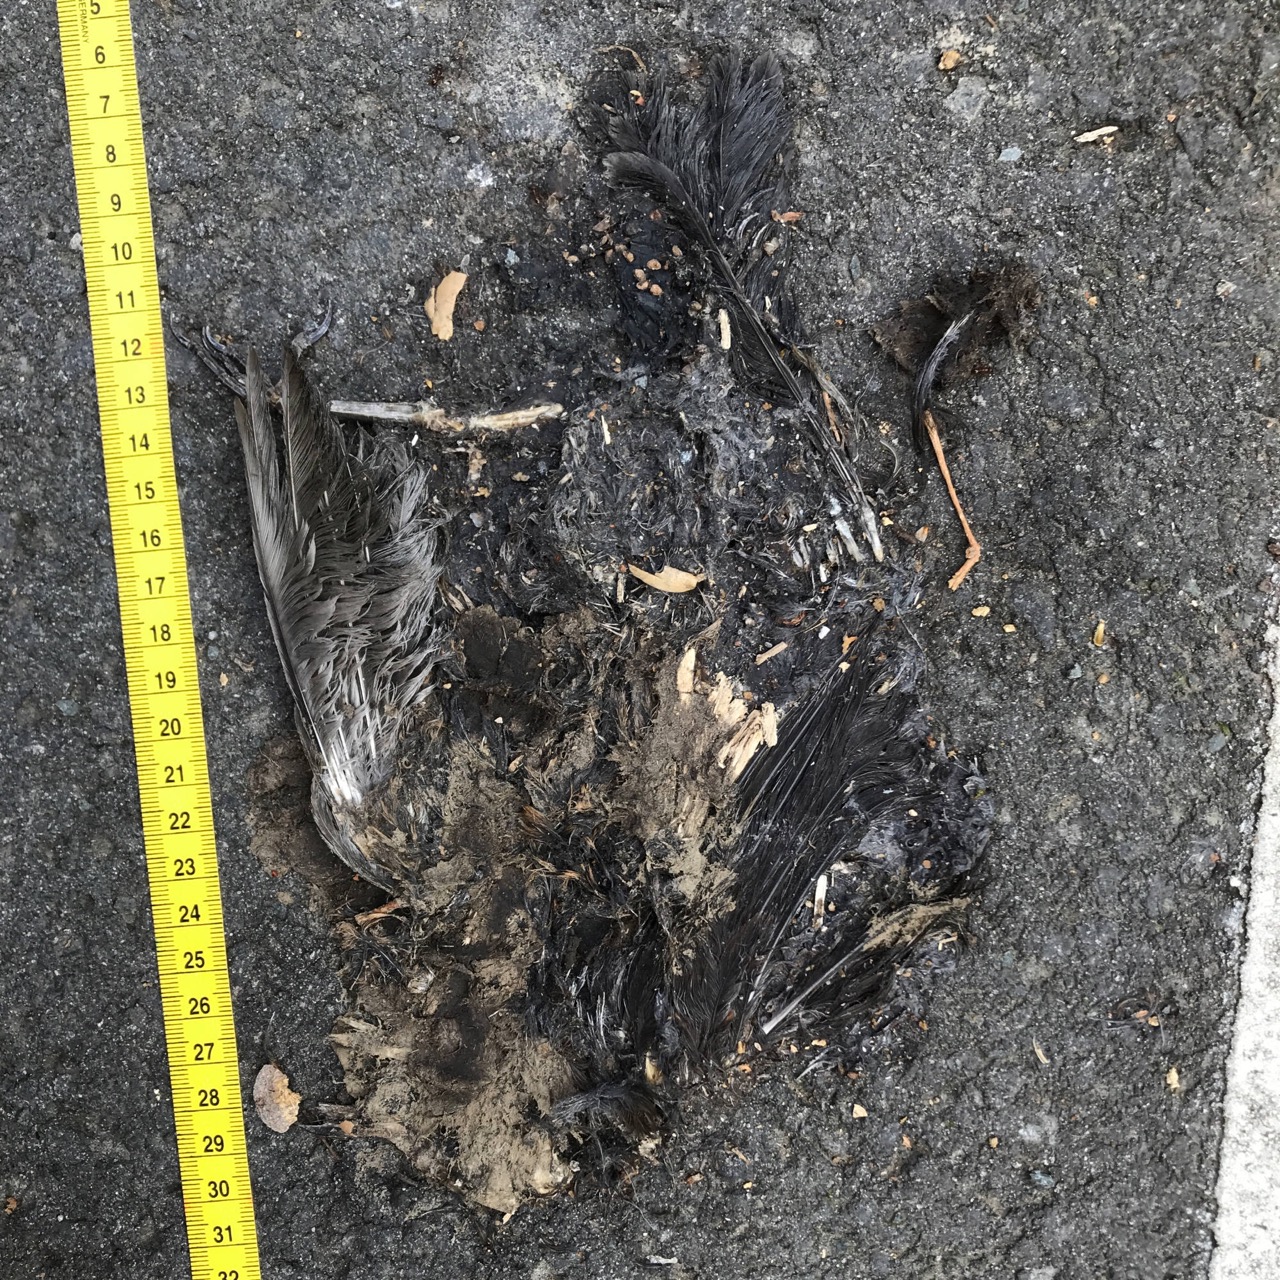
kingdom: Animalia
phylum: Chordata
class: Aves
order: Passeriformes
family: Turdidae
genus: Turdus
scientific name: Turdus merula
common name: Common blackbird
